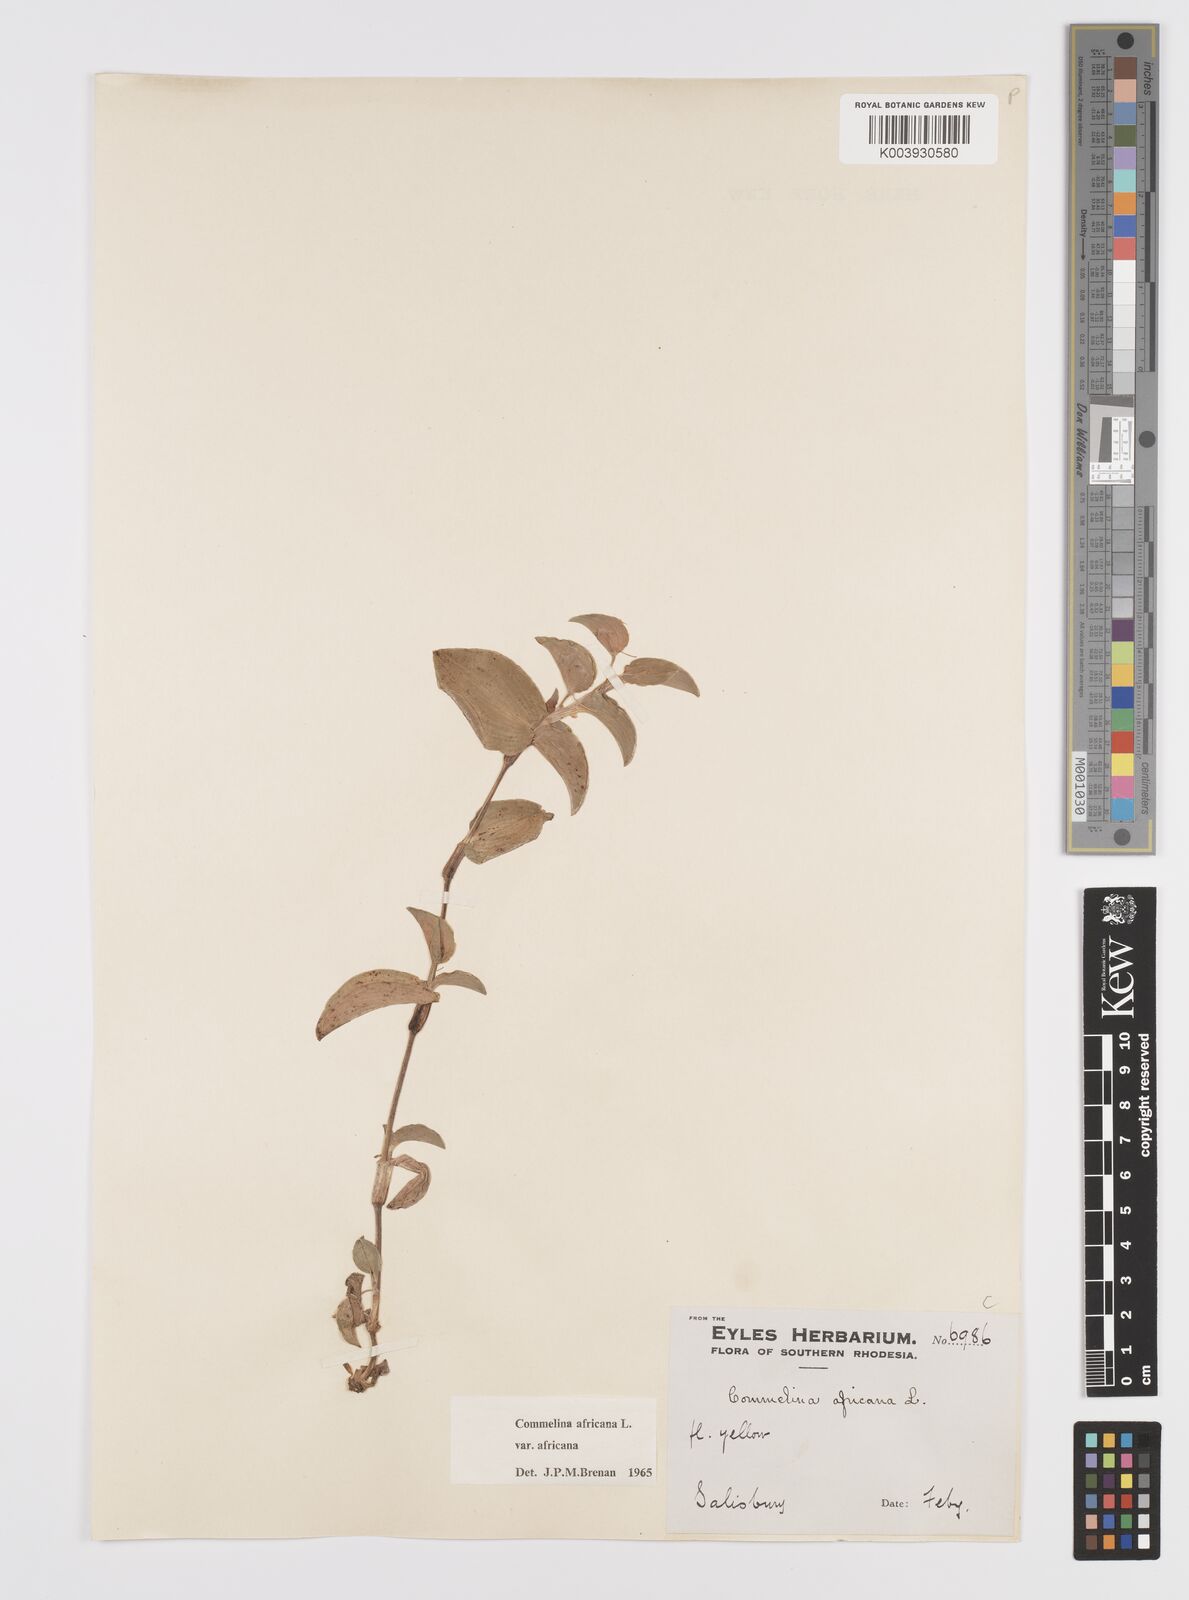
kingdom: Plantae
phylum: Tracheophyta
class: Liliopsida
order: Commelinales
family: Commelinaceae
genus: Commelina
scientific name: Commelina africana
